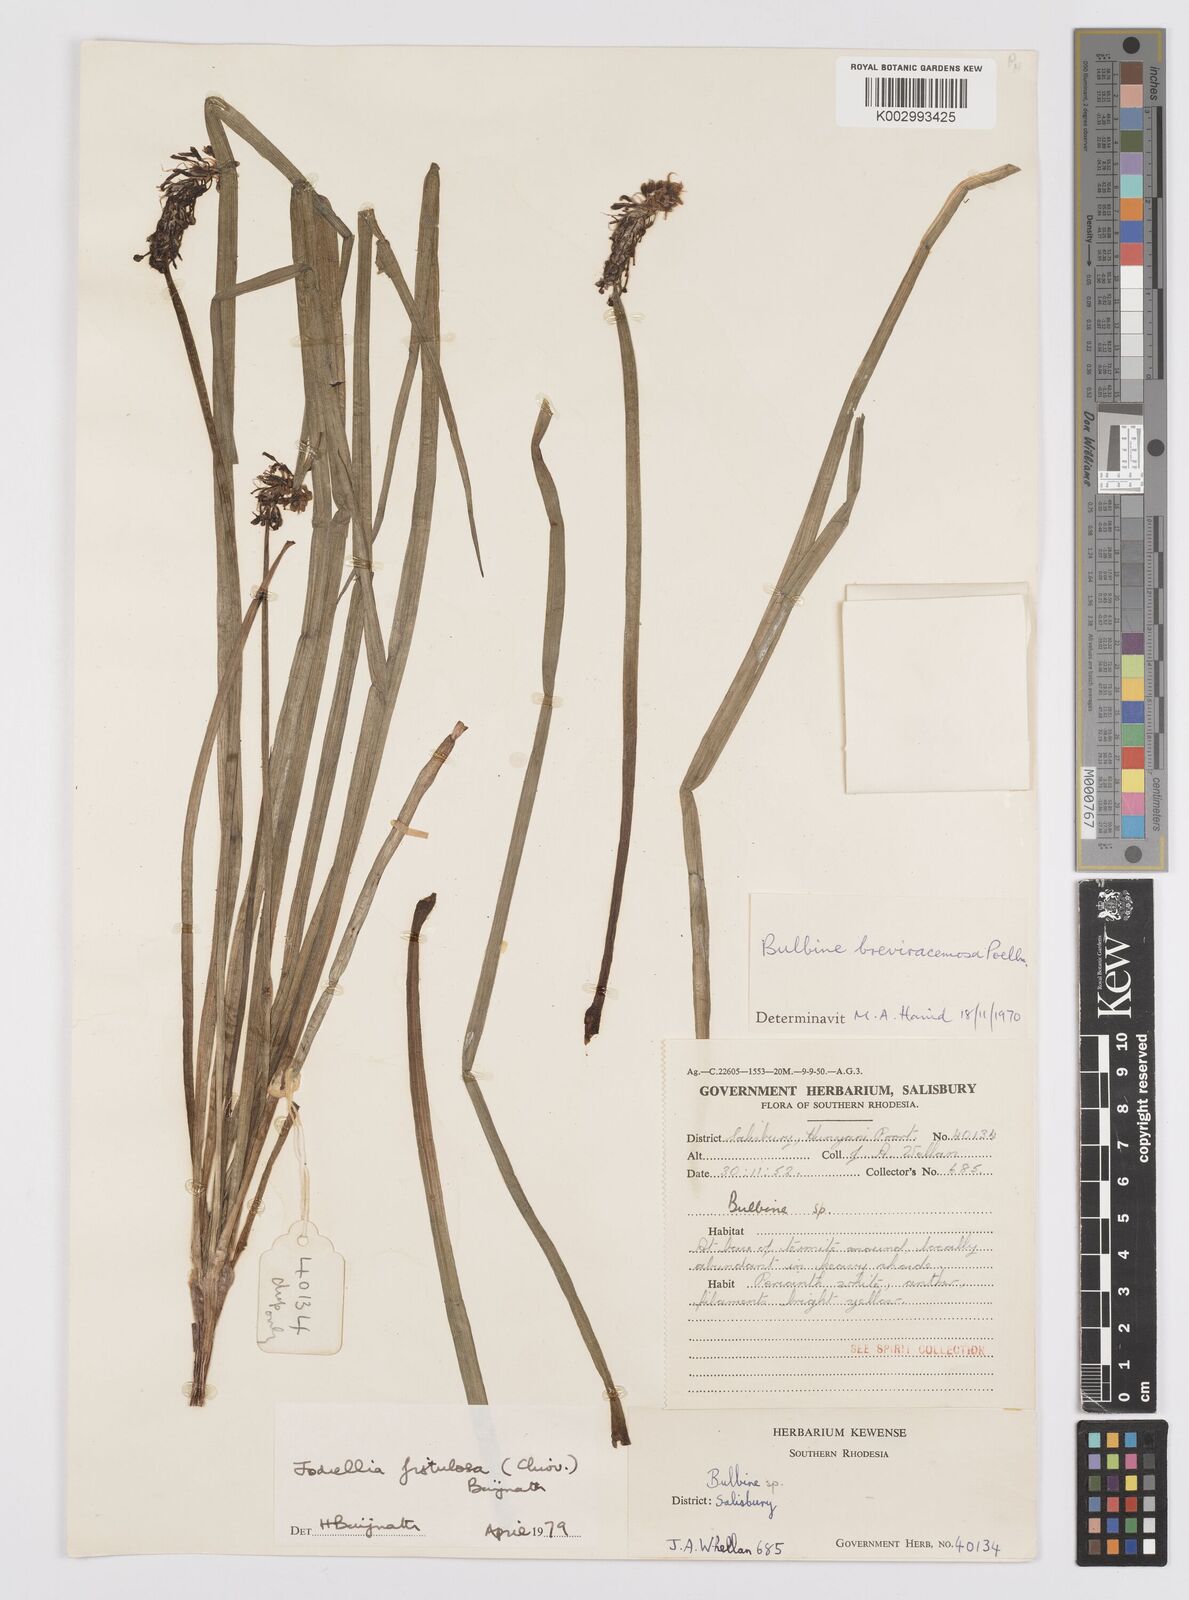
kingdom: Plantae
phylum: Tracheophyta
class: Liliopsida
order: Asparagales
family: Asphodelaceae
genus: Bulbine
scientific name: Bulbine fistulosa
